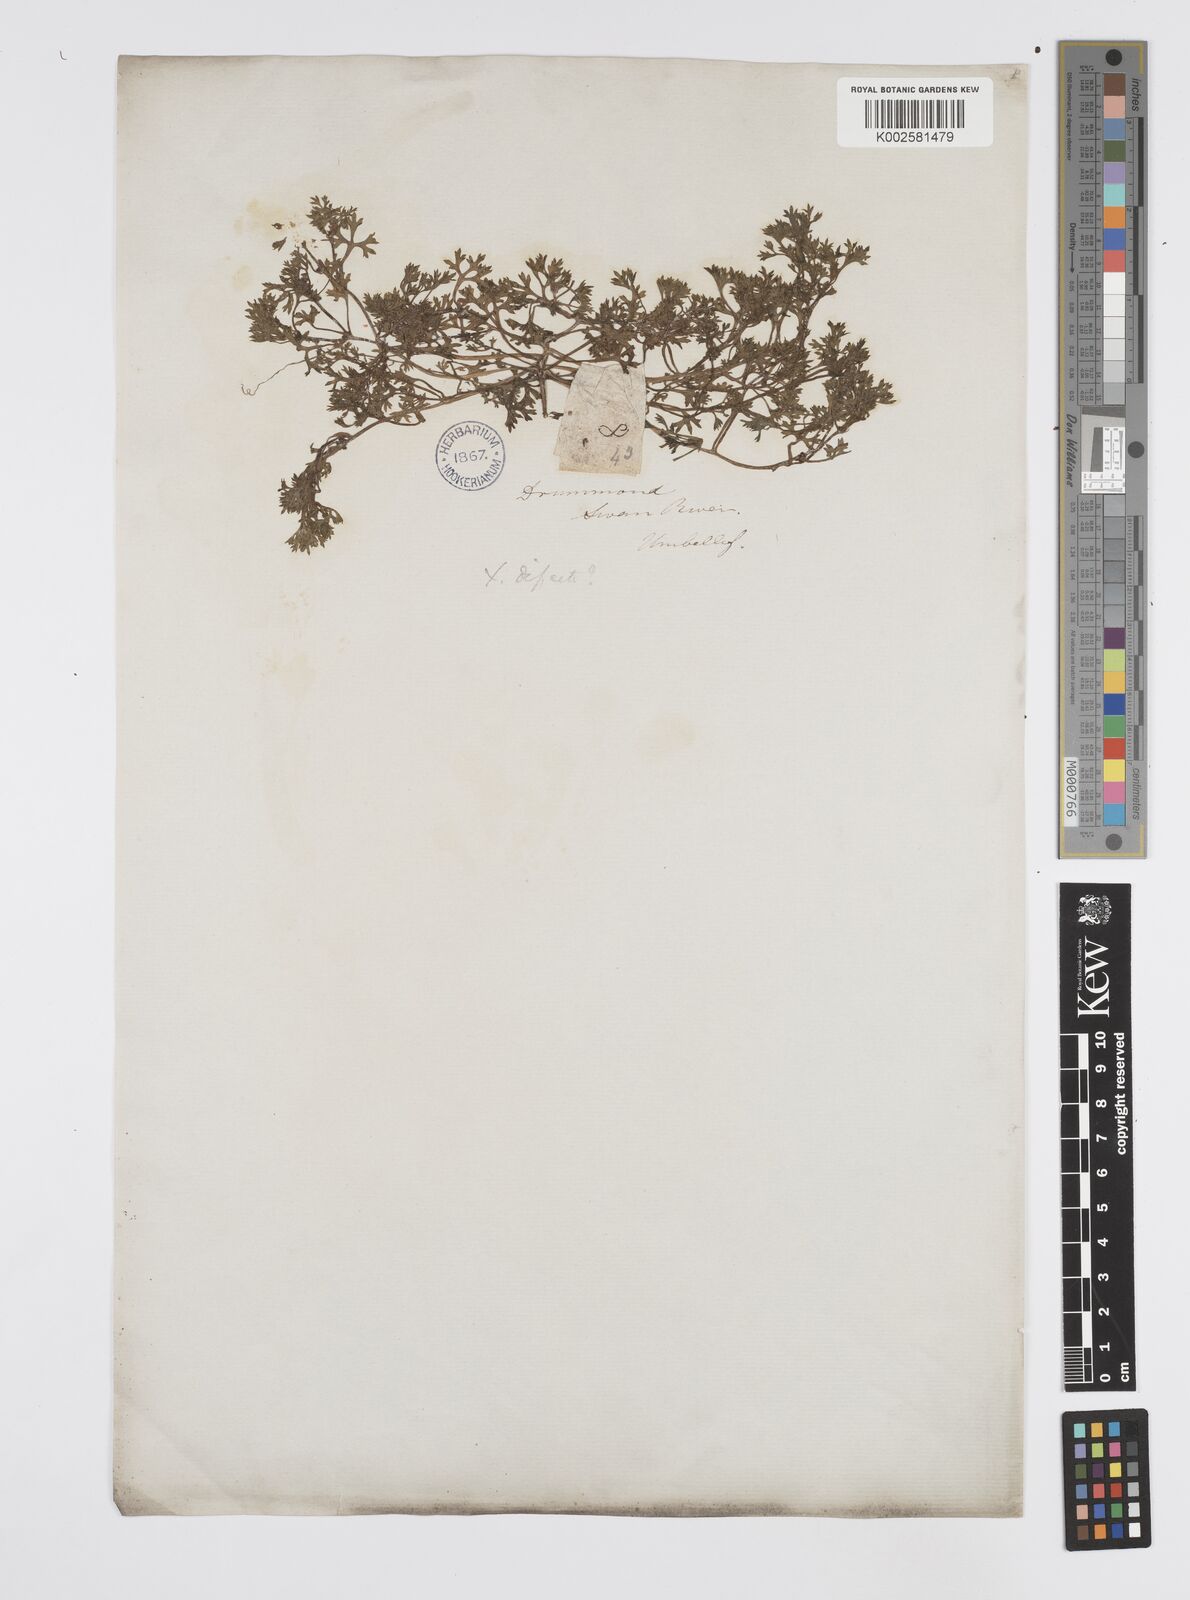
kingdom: Plantae
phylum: Tracheophyta
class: Magnoliopsida
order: Apiales
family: Apiaceae
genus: Homalosciadium
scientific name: Homalosciadium homalocarpum
